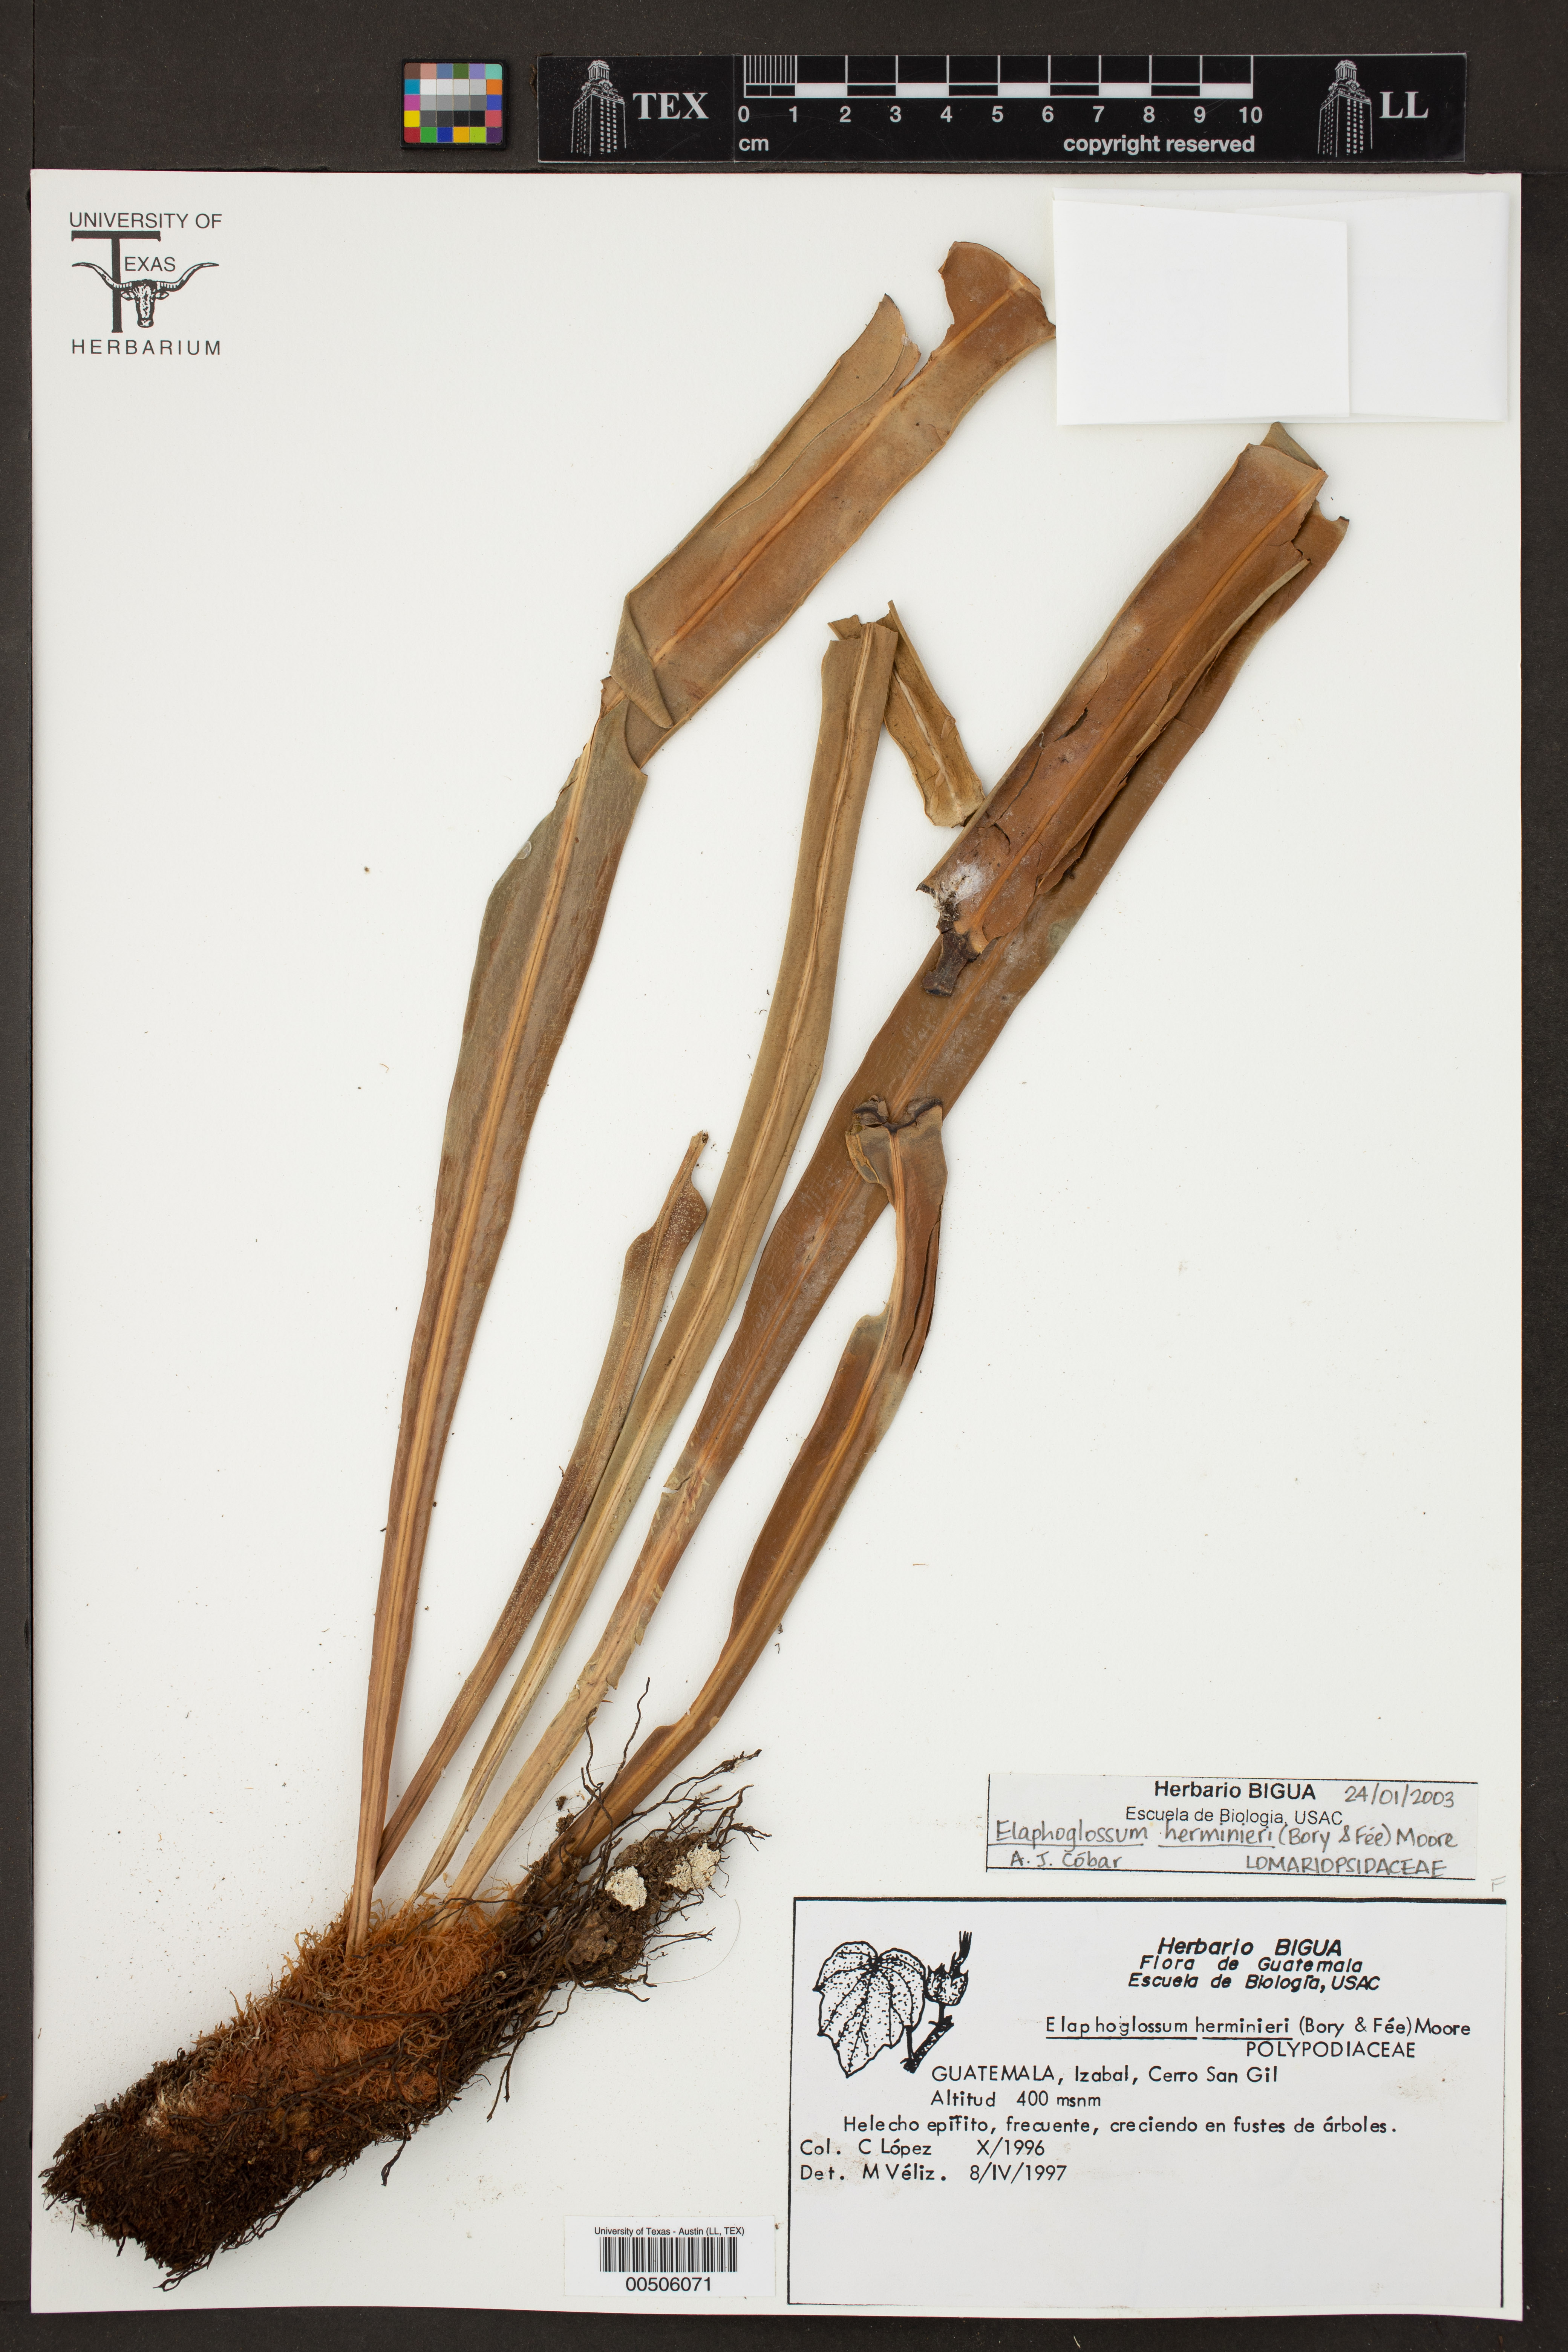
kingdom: Plantae
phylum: Tracheophyta
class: Polypodiopsida
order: Polypodiales
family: Dryopteridaceae
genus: Elaphoglossum
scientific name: Elaphoglossum herminieri
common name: Drooping tonguefern
